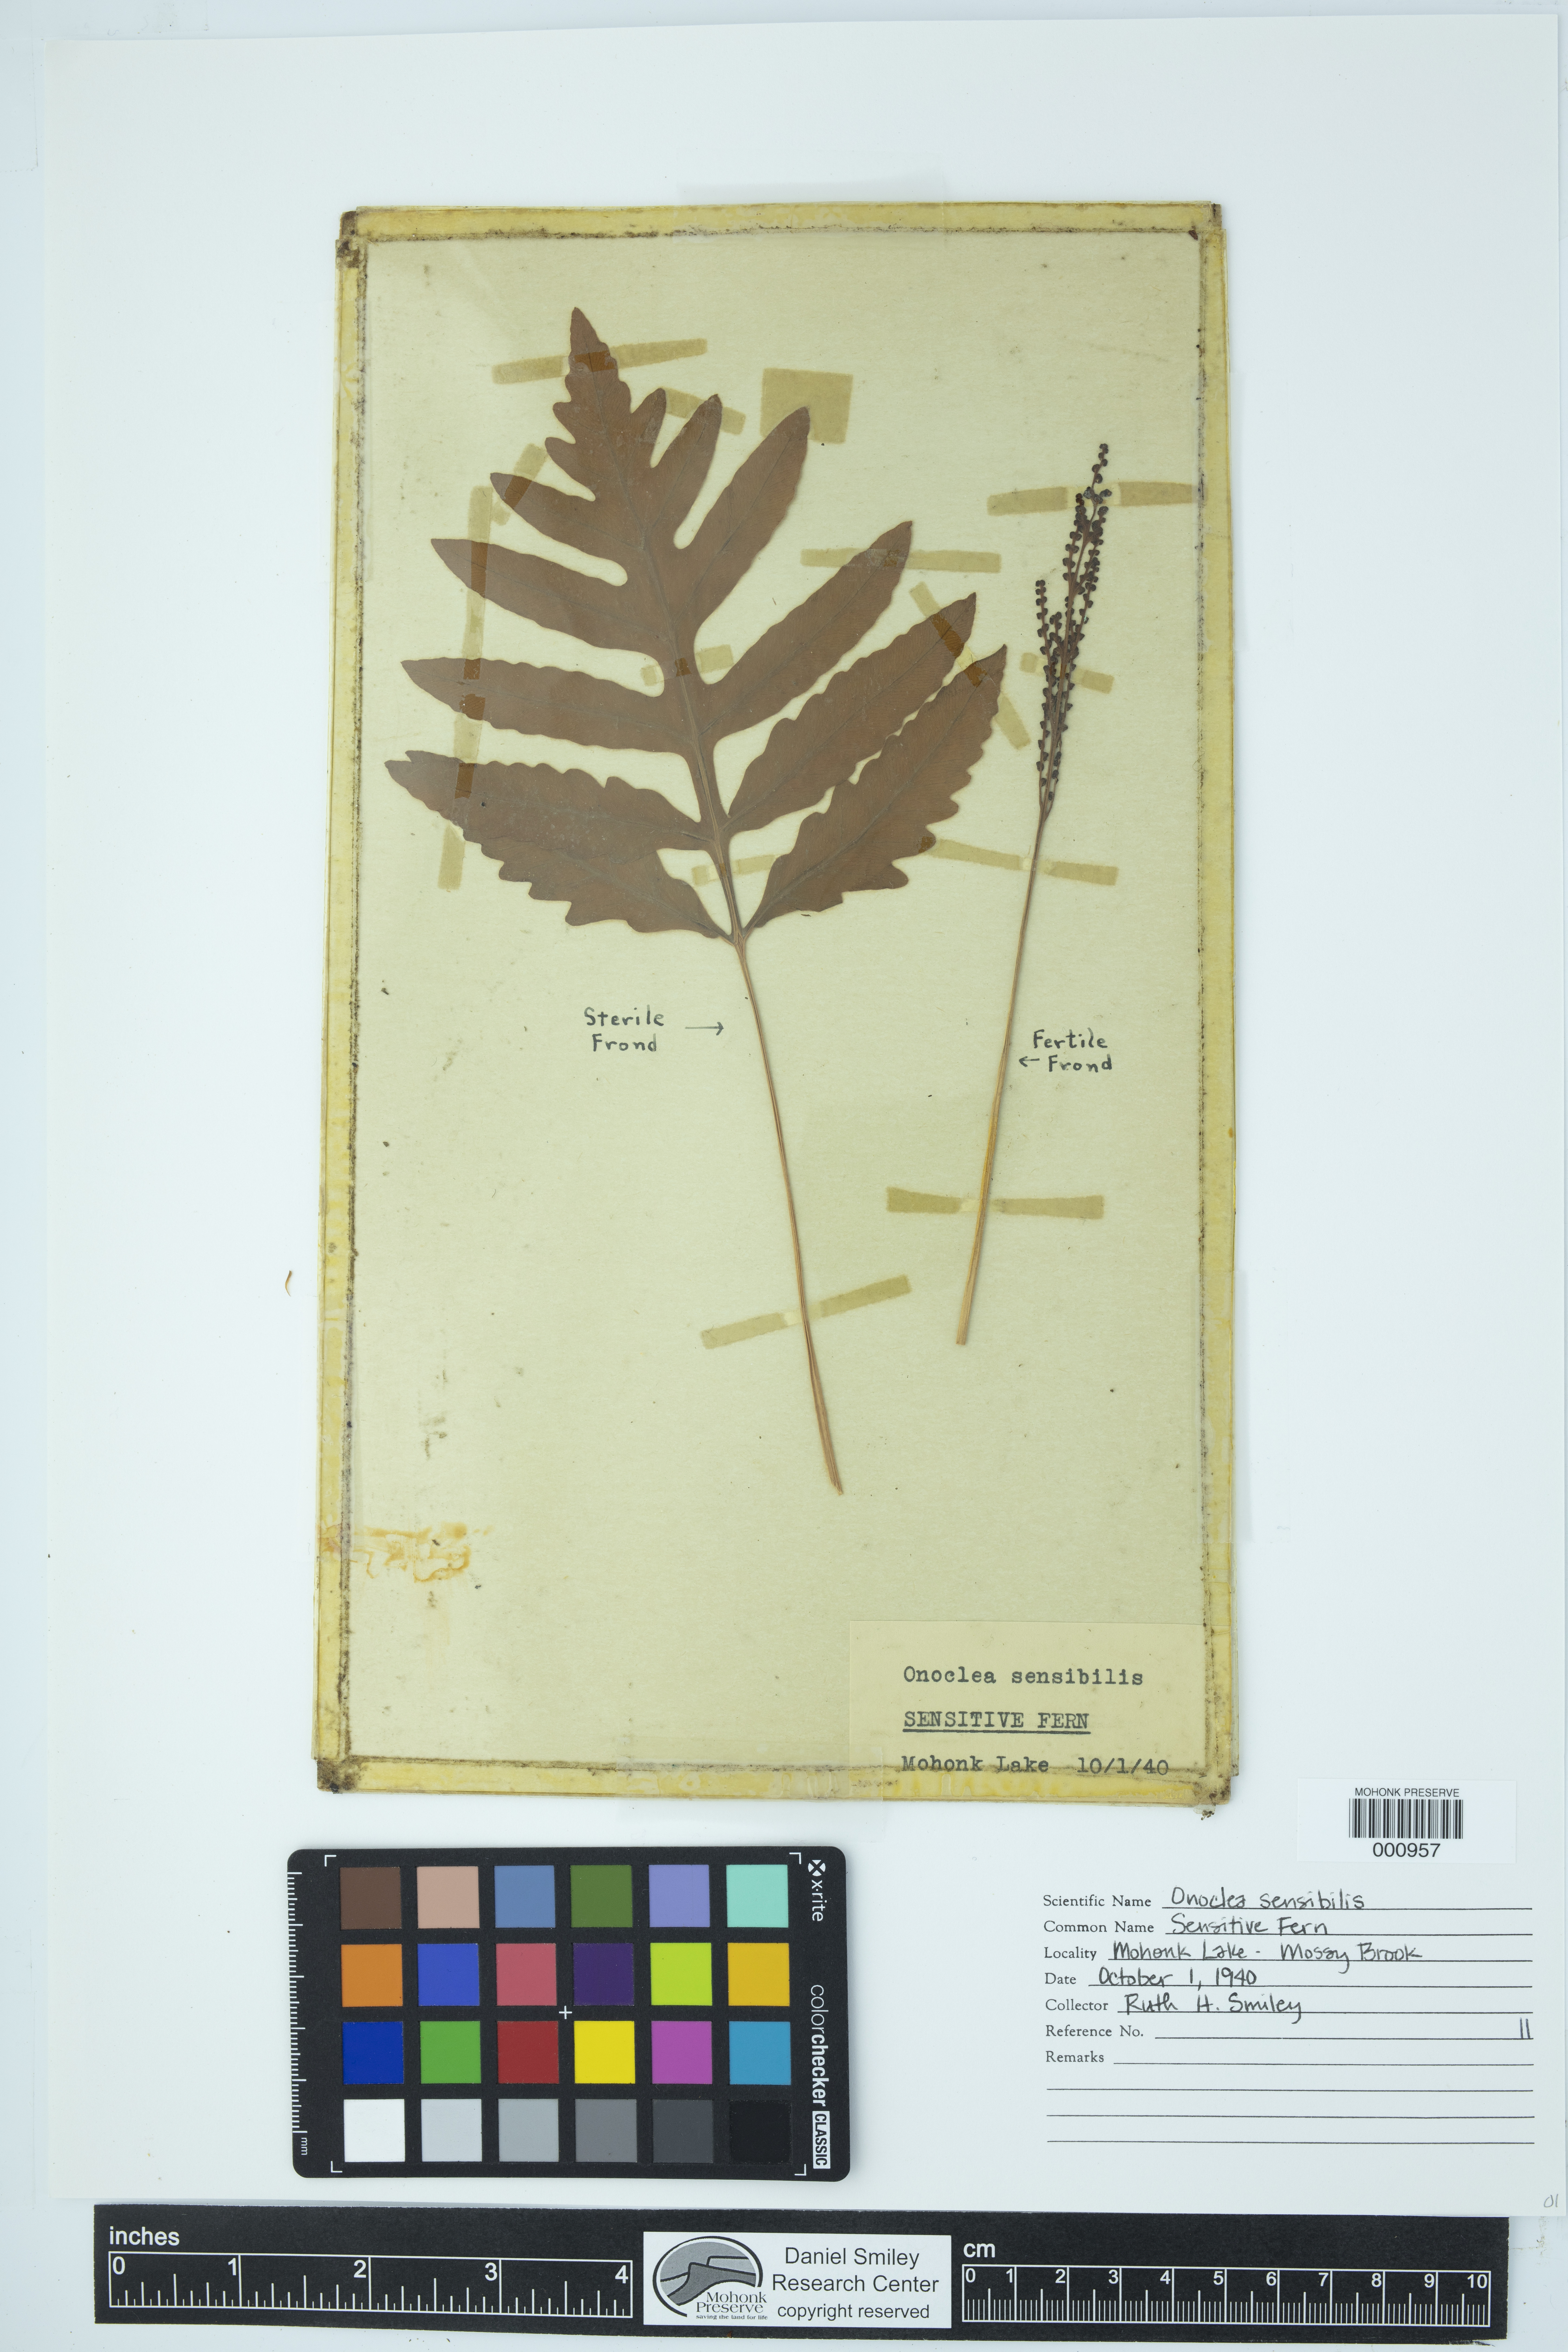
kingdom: Plantae
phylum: Tracheophyta
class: Polypodiopsida
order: Polypodiales
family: Onocleaceae
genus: Onoclea
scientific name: Onoclea sensibilis
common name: Sensitive fern
